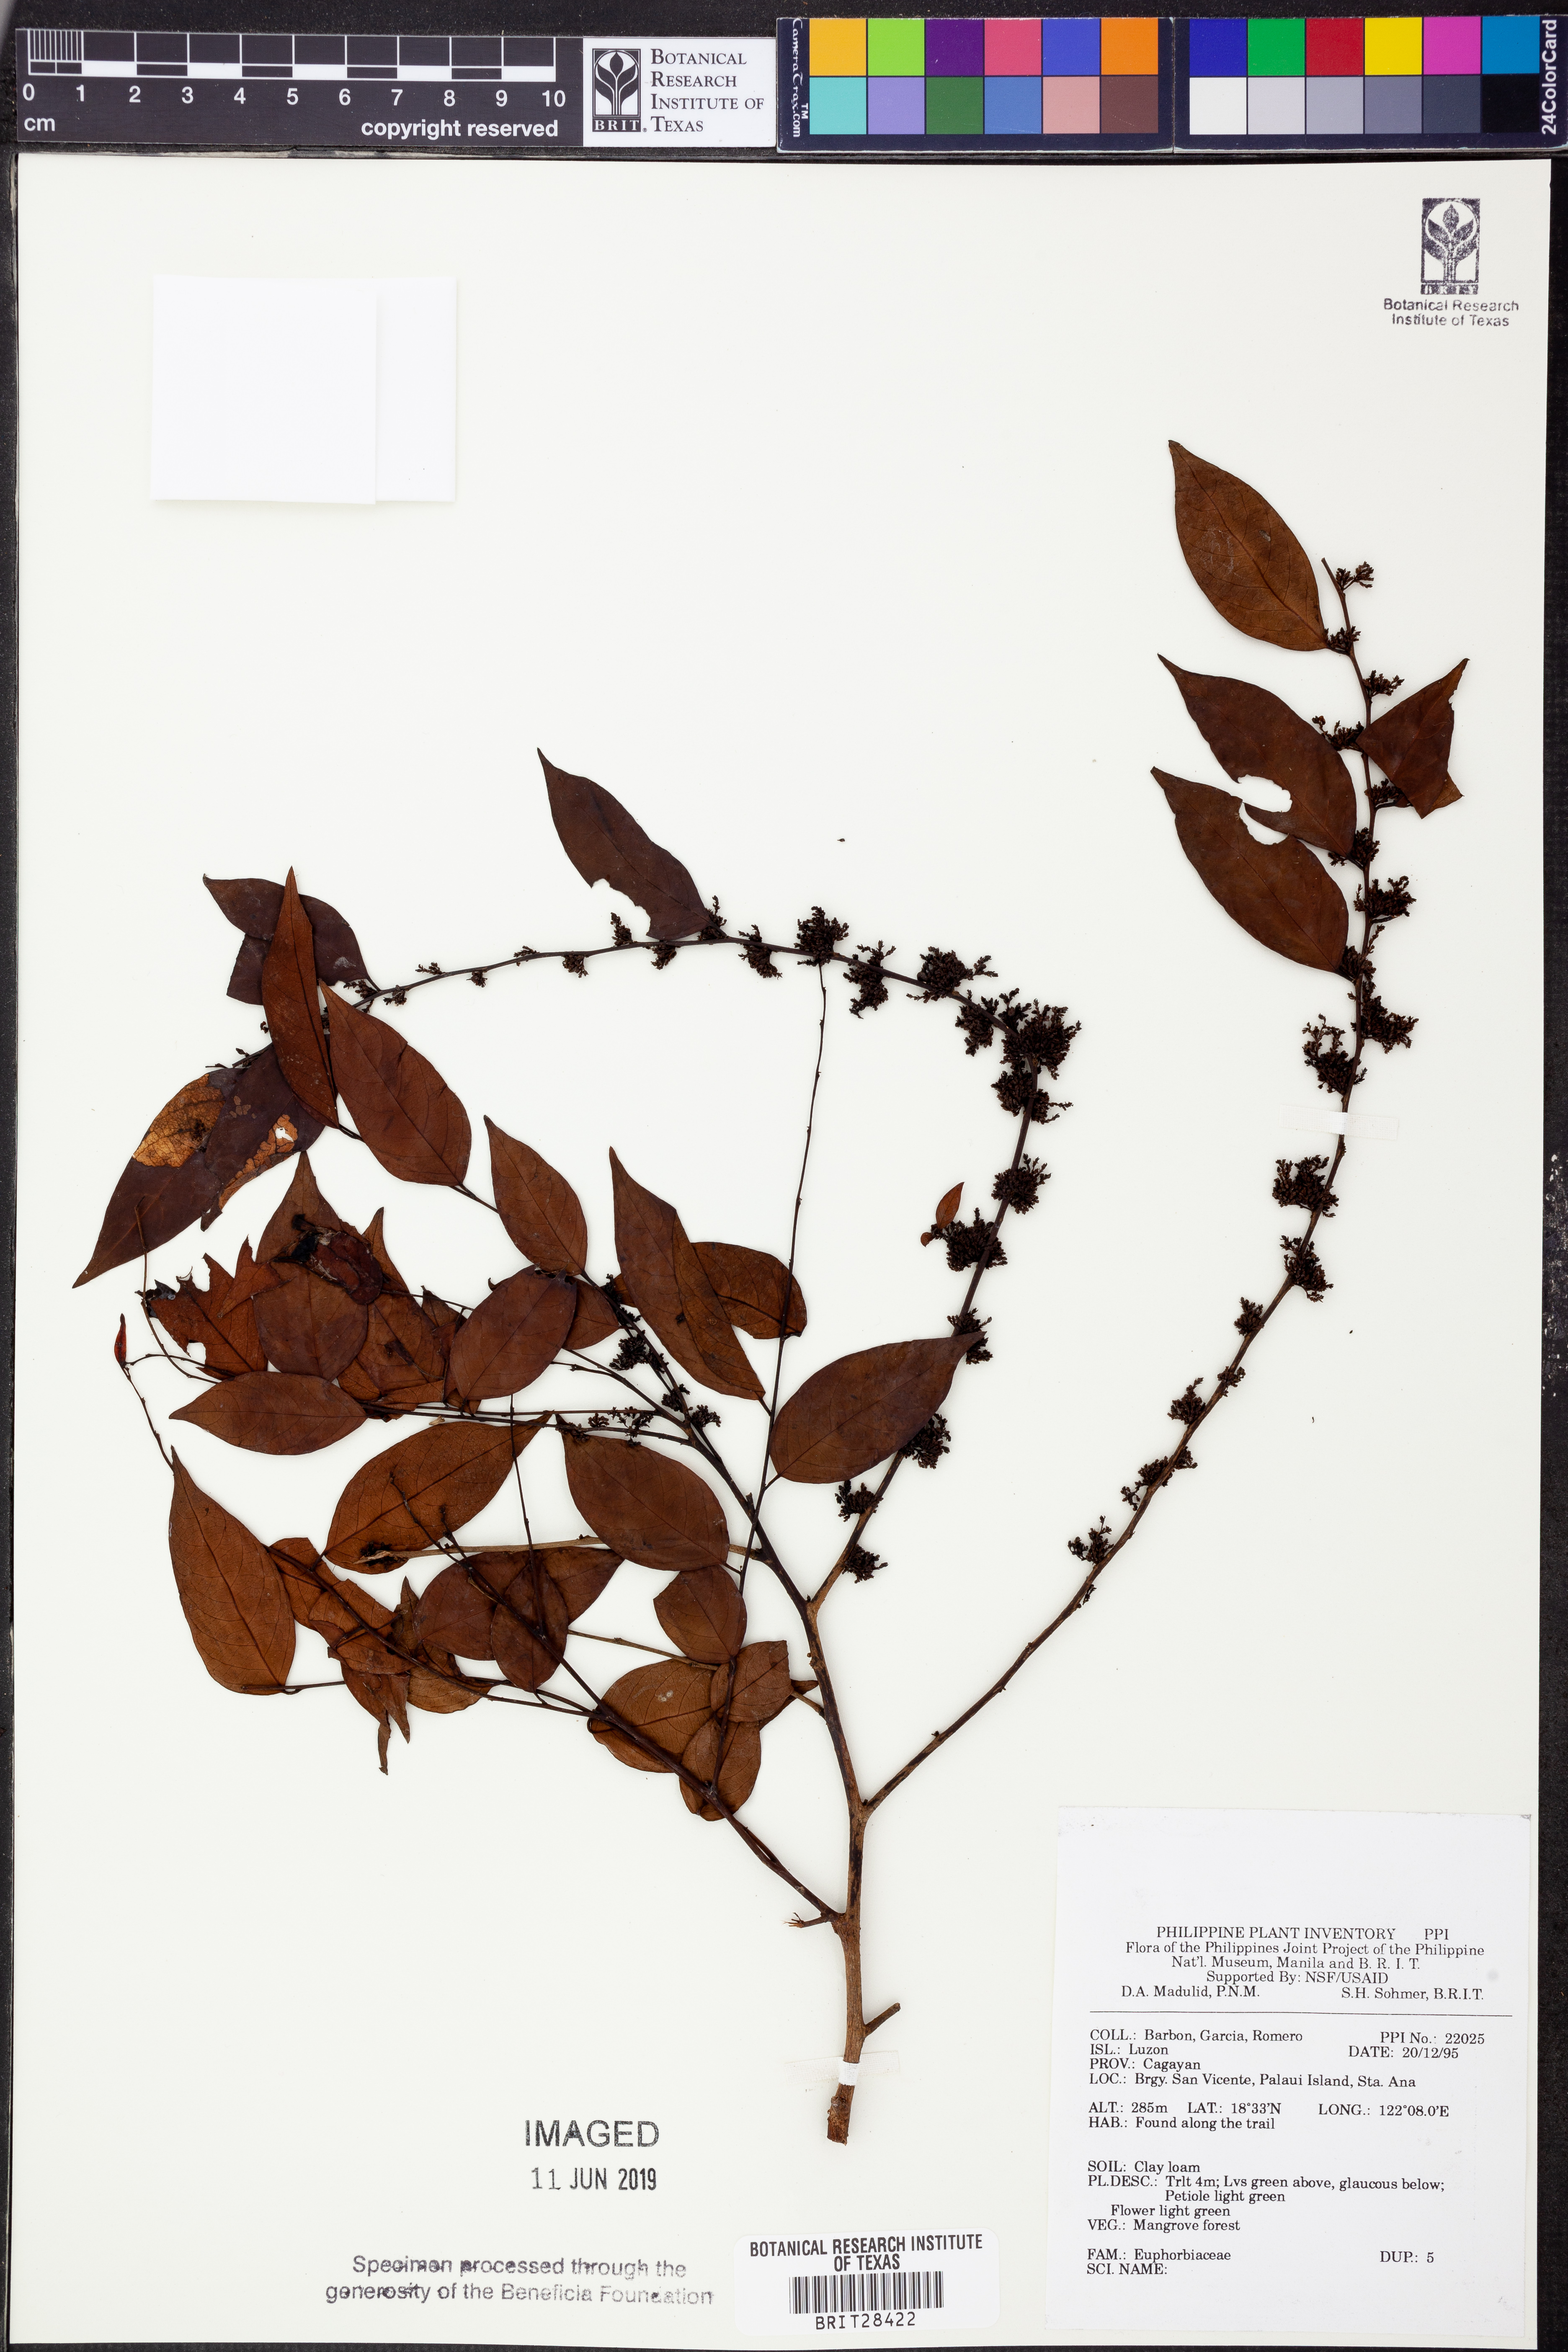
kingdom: Plantae
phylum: Tracheophyta
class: Magnoliopsida
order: Malpighiales
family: Euphorbiaceae
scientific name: Euphorbiaceae
